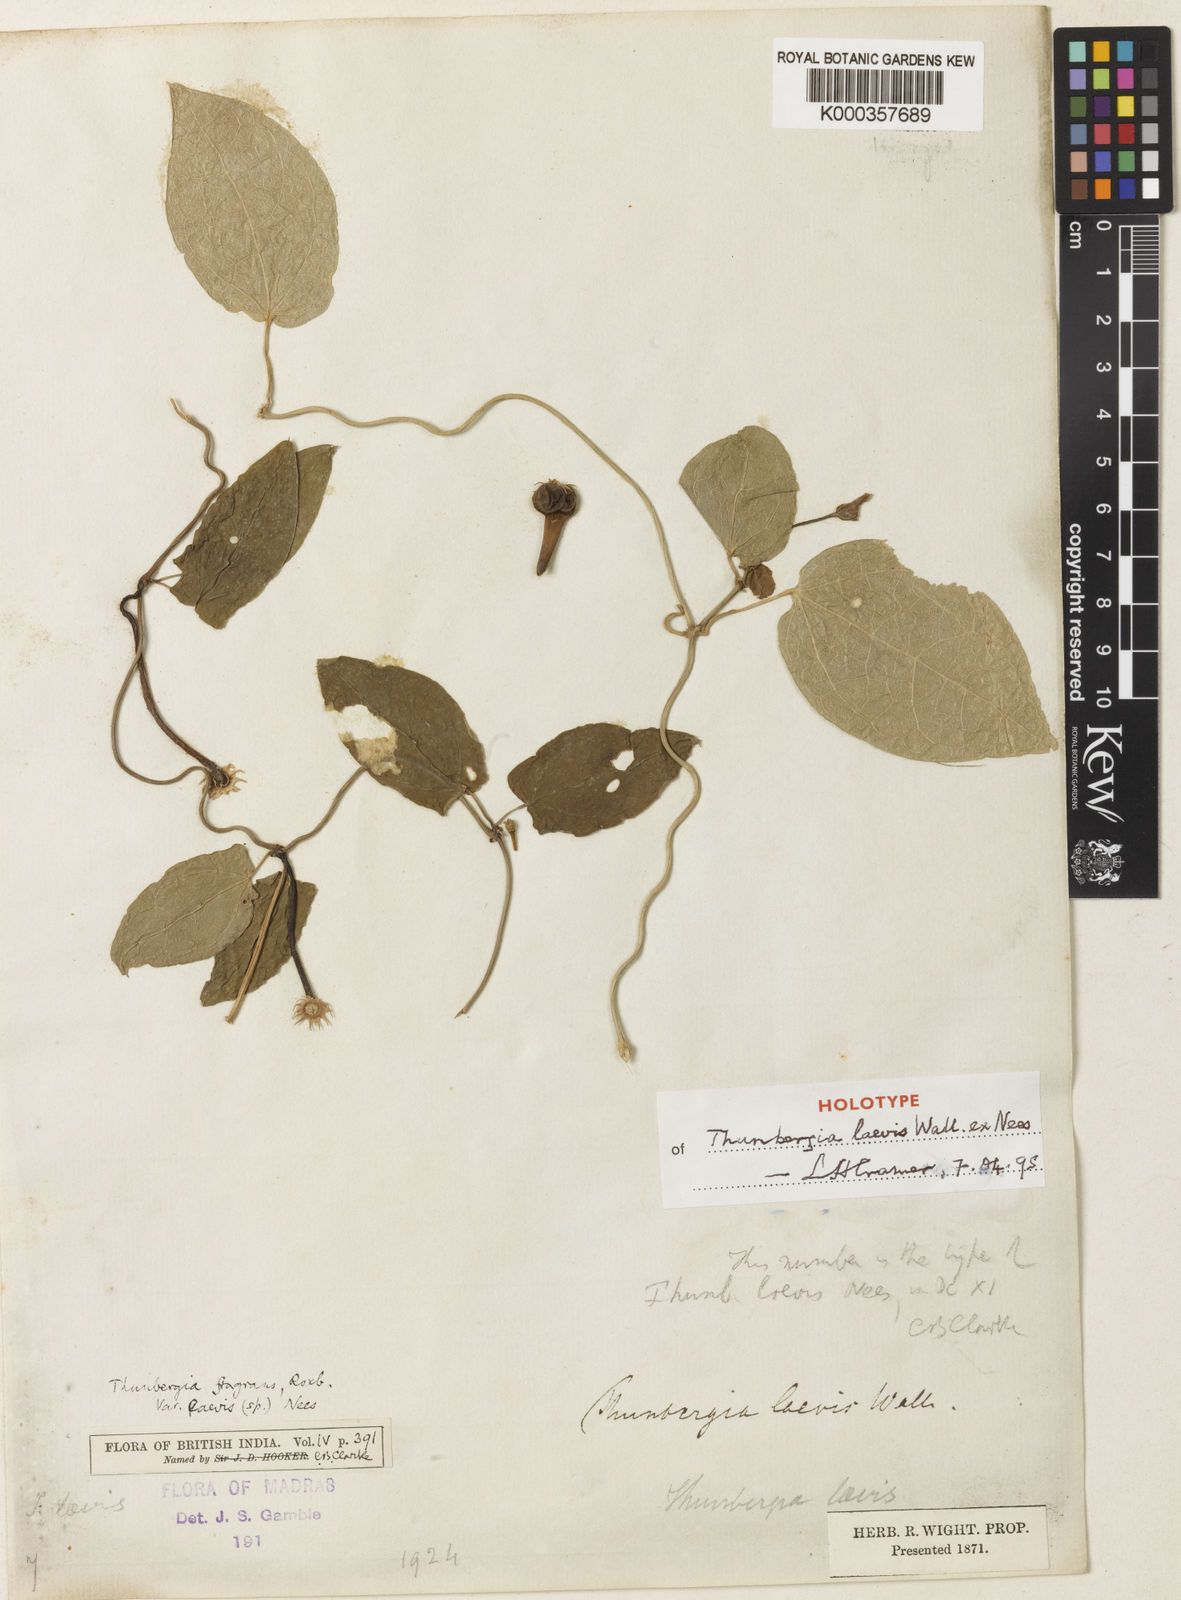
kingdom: Plantae
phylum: Tracheophyta
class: Magnoliopsida
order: Lamiales
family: Acanthaceae
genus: Thunbergia
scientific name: Thunbergia laevis
